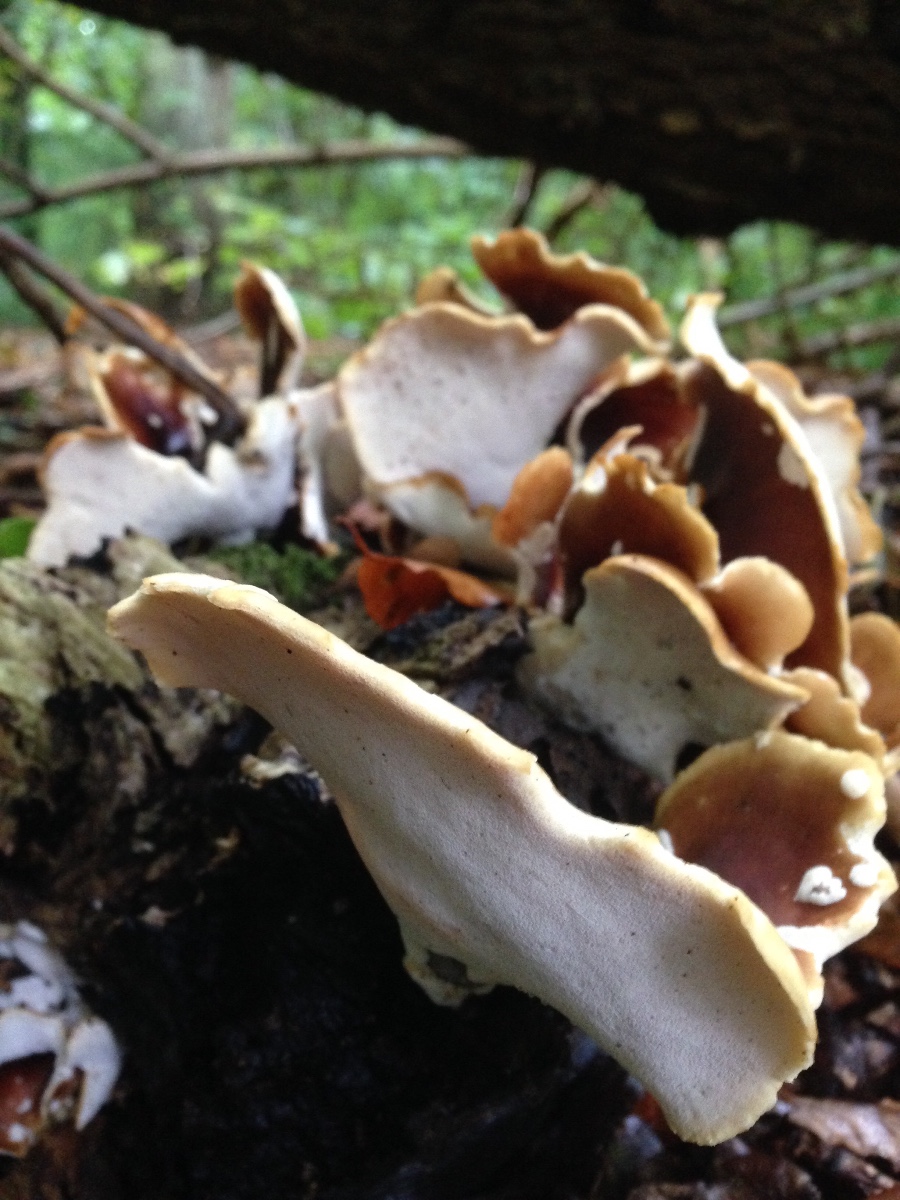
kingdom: Fungi
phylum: Basidiomycota
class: Agaricomycetes
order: Polyporales
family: Polyporaceae
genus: Picipes
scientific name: Picipes badius
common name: kastaniebrun stilkporesvamp
